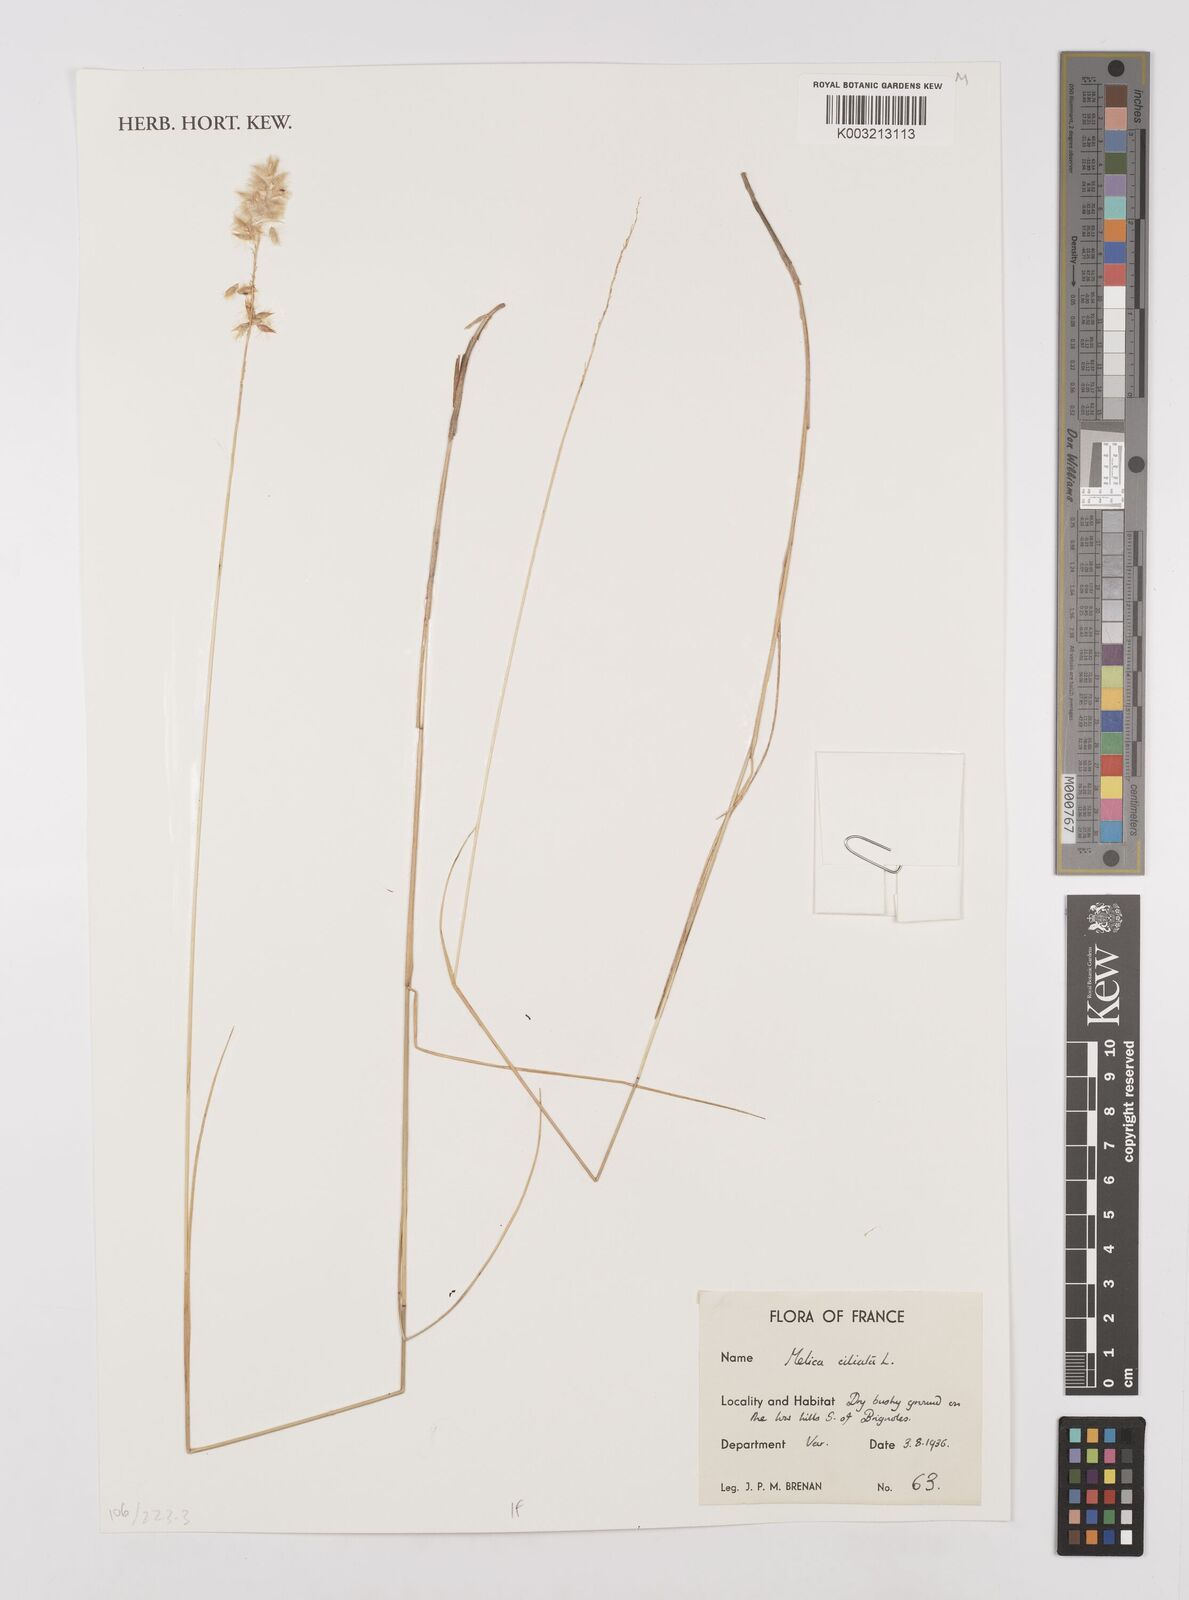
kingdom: Plantae
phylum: Tracheophyta
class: Liliopsida
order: Poales
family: Poaceae
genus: Melica
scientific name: Melica ciliata
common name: Hairy melicgrass
